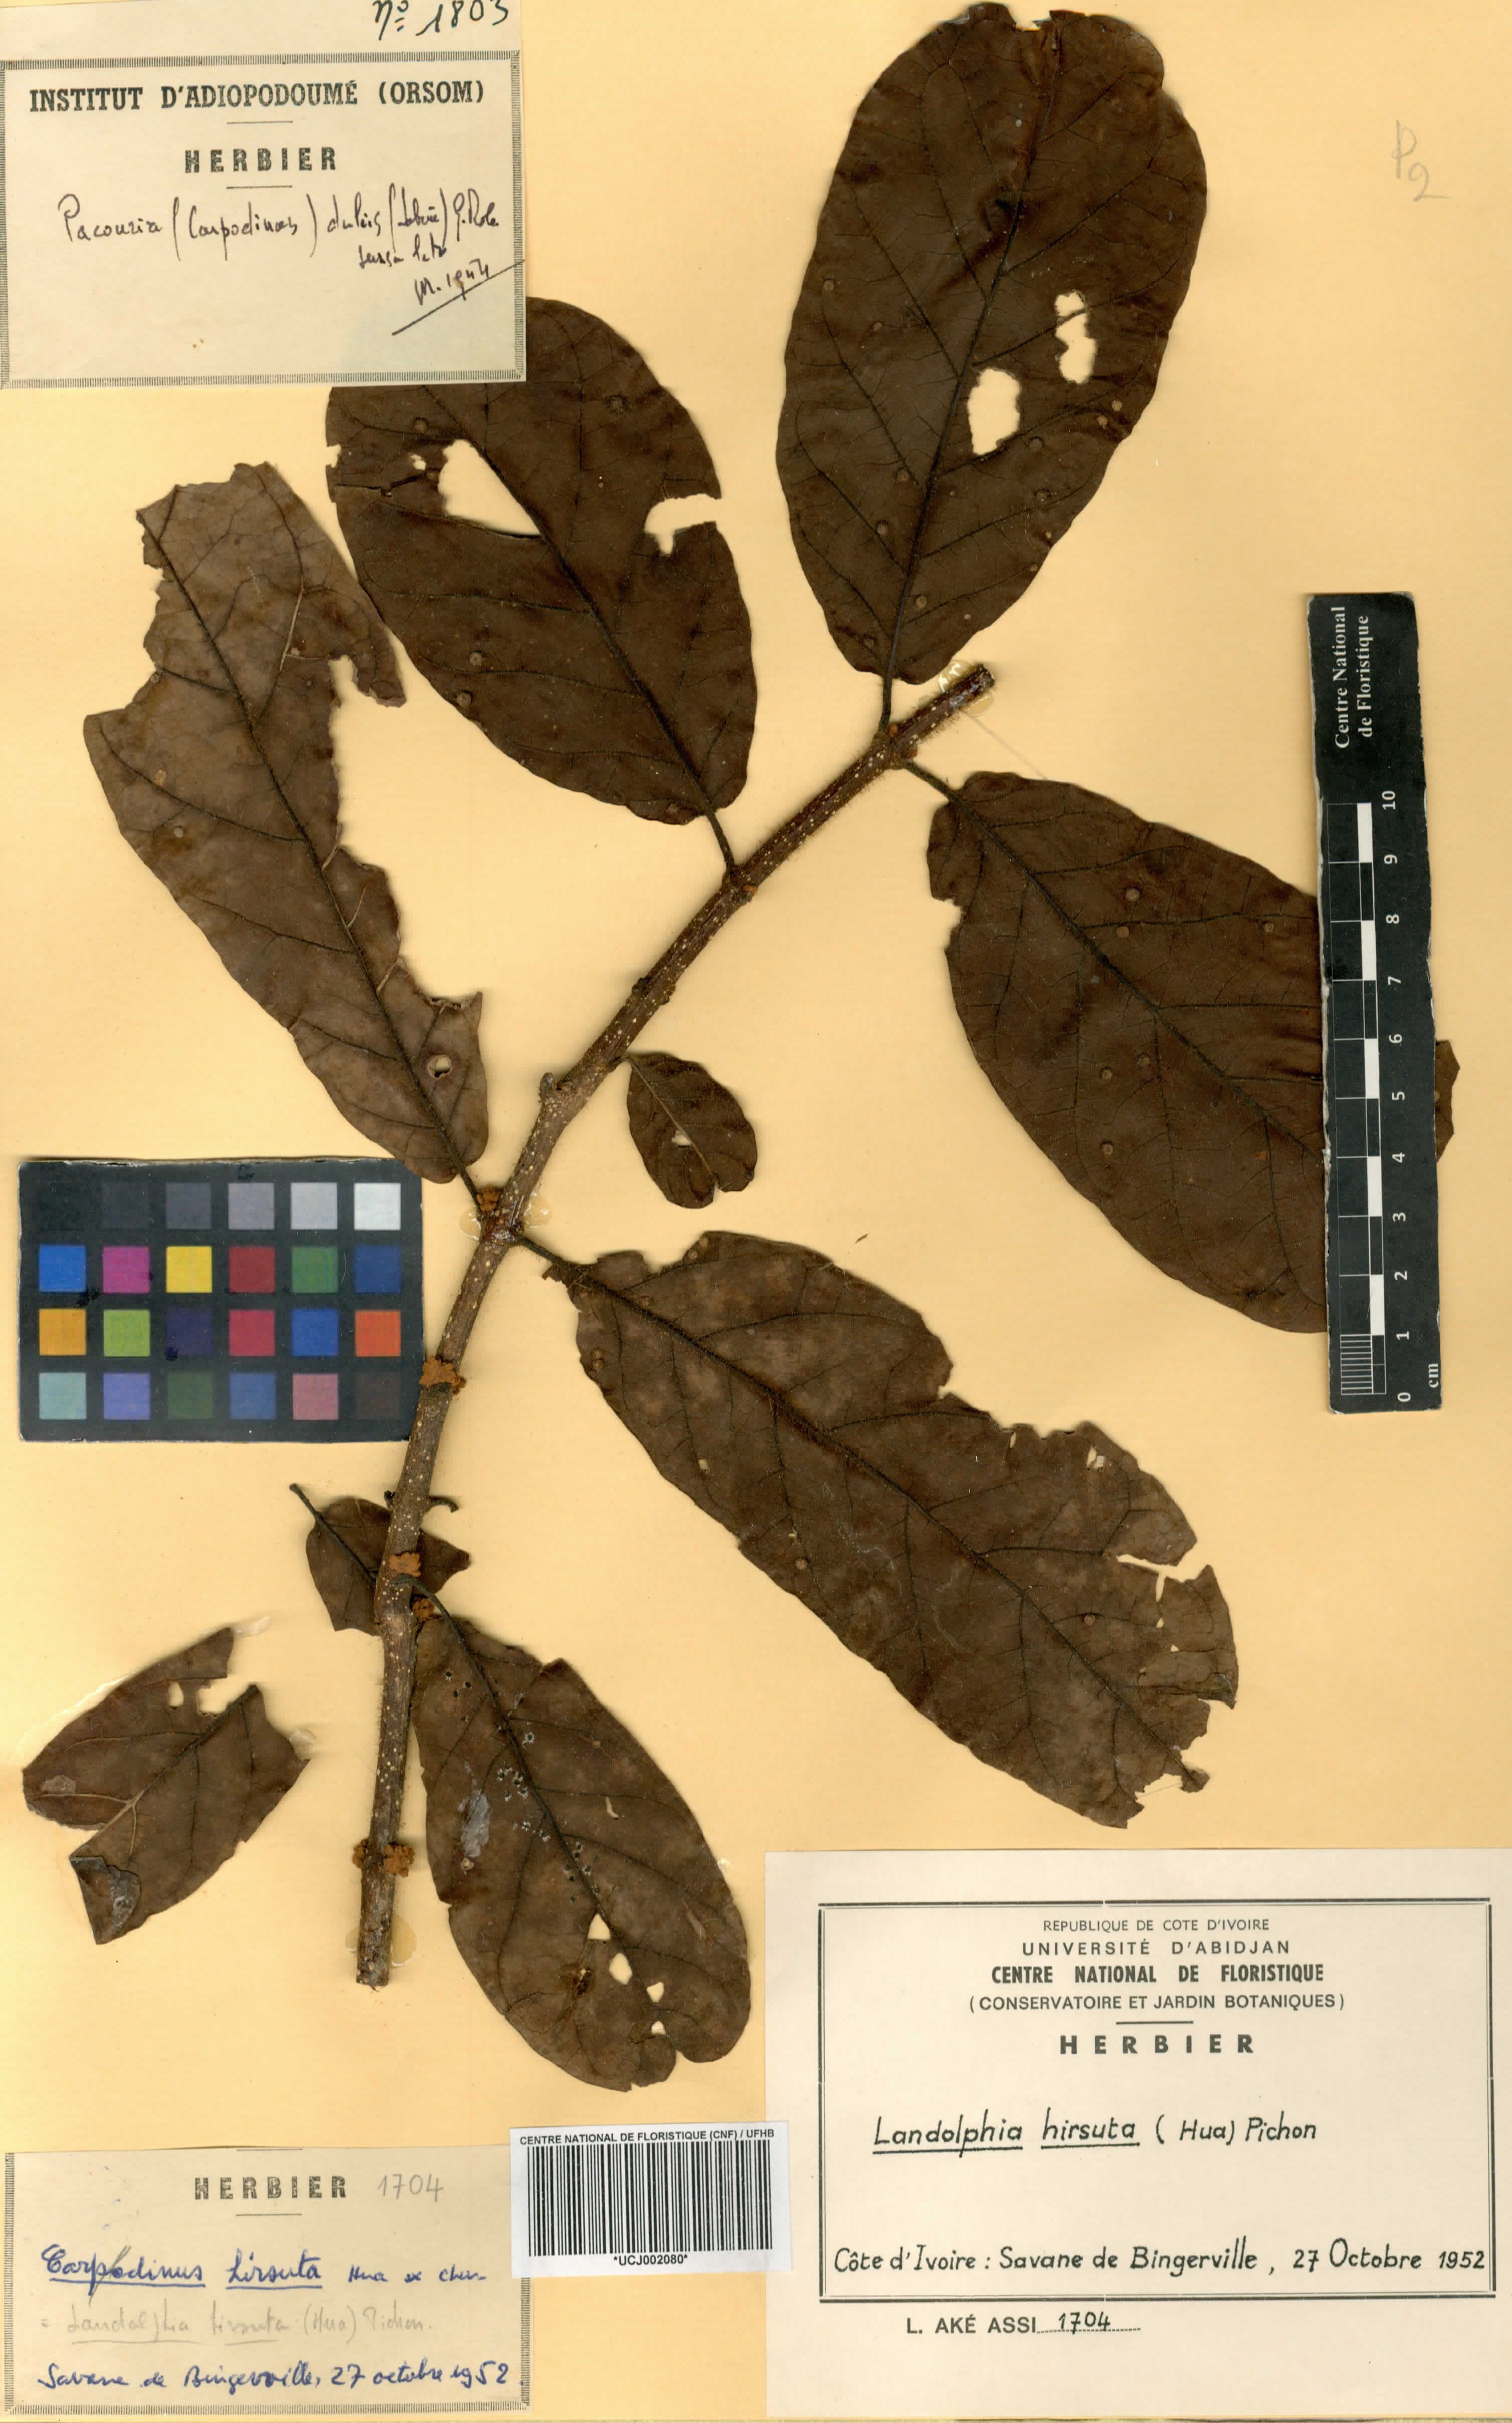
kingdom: Plantae
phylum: Tracheophyta
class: Magnoliopsida
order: Gentianales
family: Apocynaceae
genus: Landolphia
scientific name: Landolphia hirsuta
